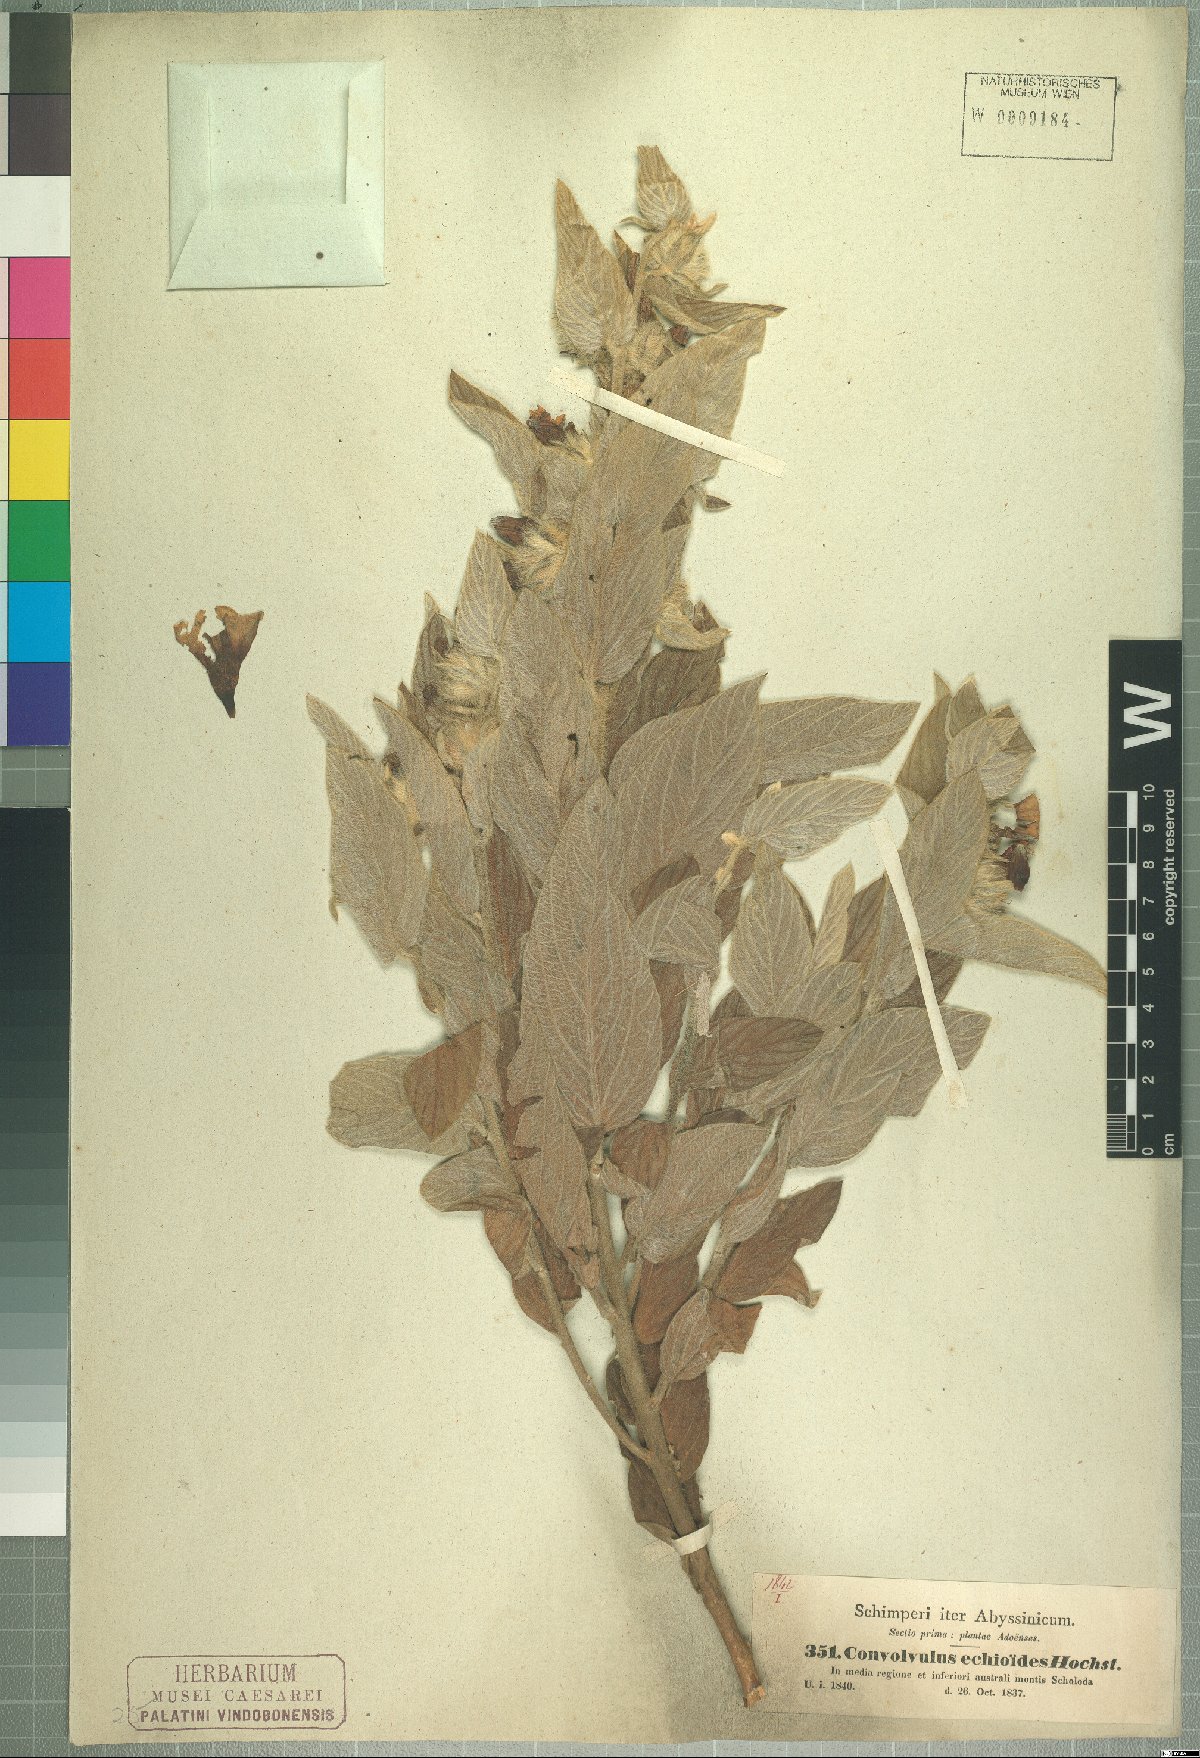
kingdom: Plantae
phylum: Tracheophyta
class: Magnoliopsida
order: Solanales
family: Convolvulaceae
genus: Ipomoea
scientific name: Ipomoea abyssinica
